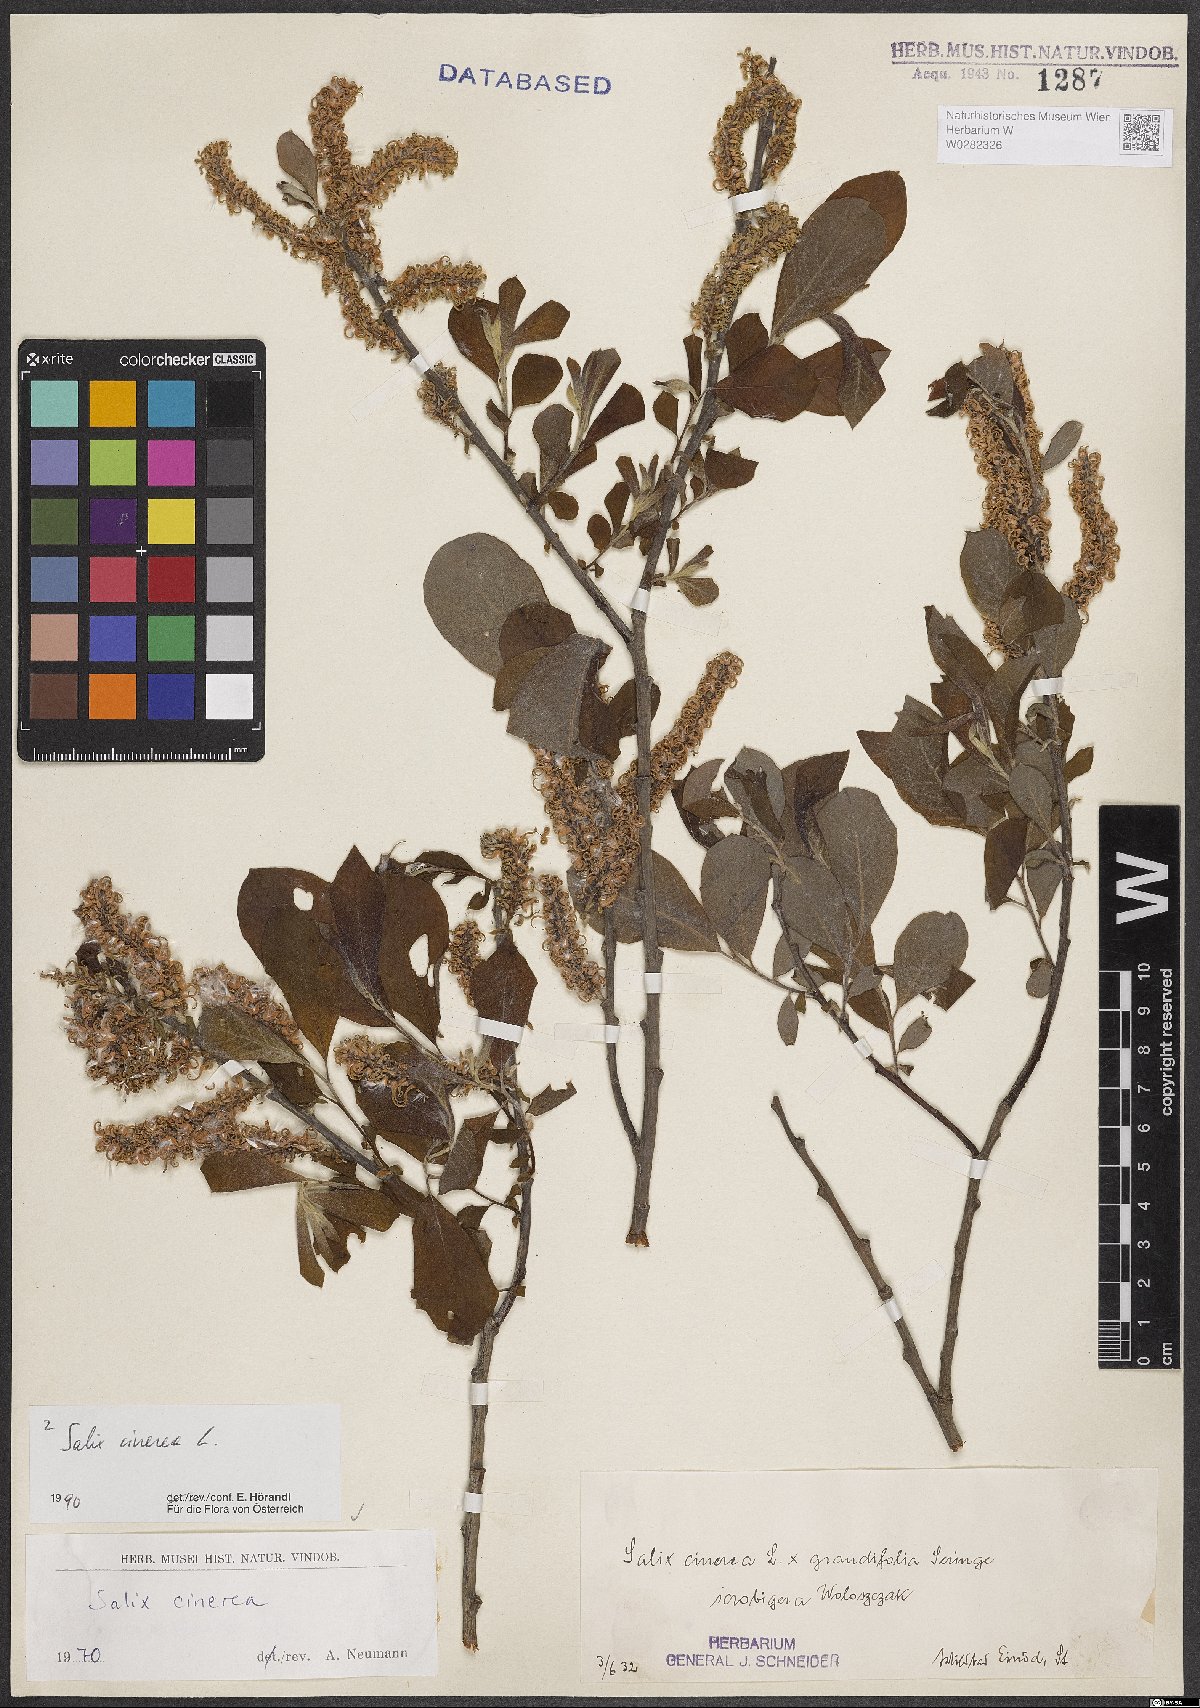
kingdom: Plantae
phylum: Tracheophyta
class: Magnoliopsida
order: Malpighiales
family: Salicaceae
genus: Salix
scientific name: Salix cinerea
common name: Common sallow
